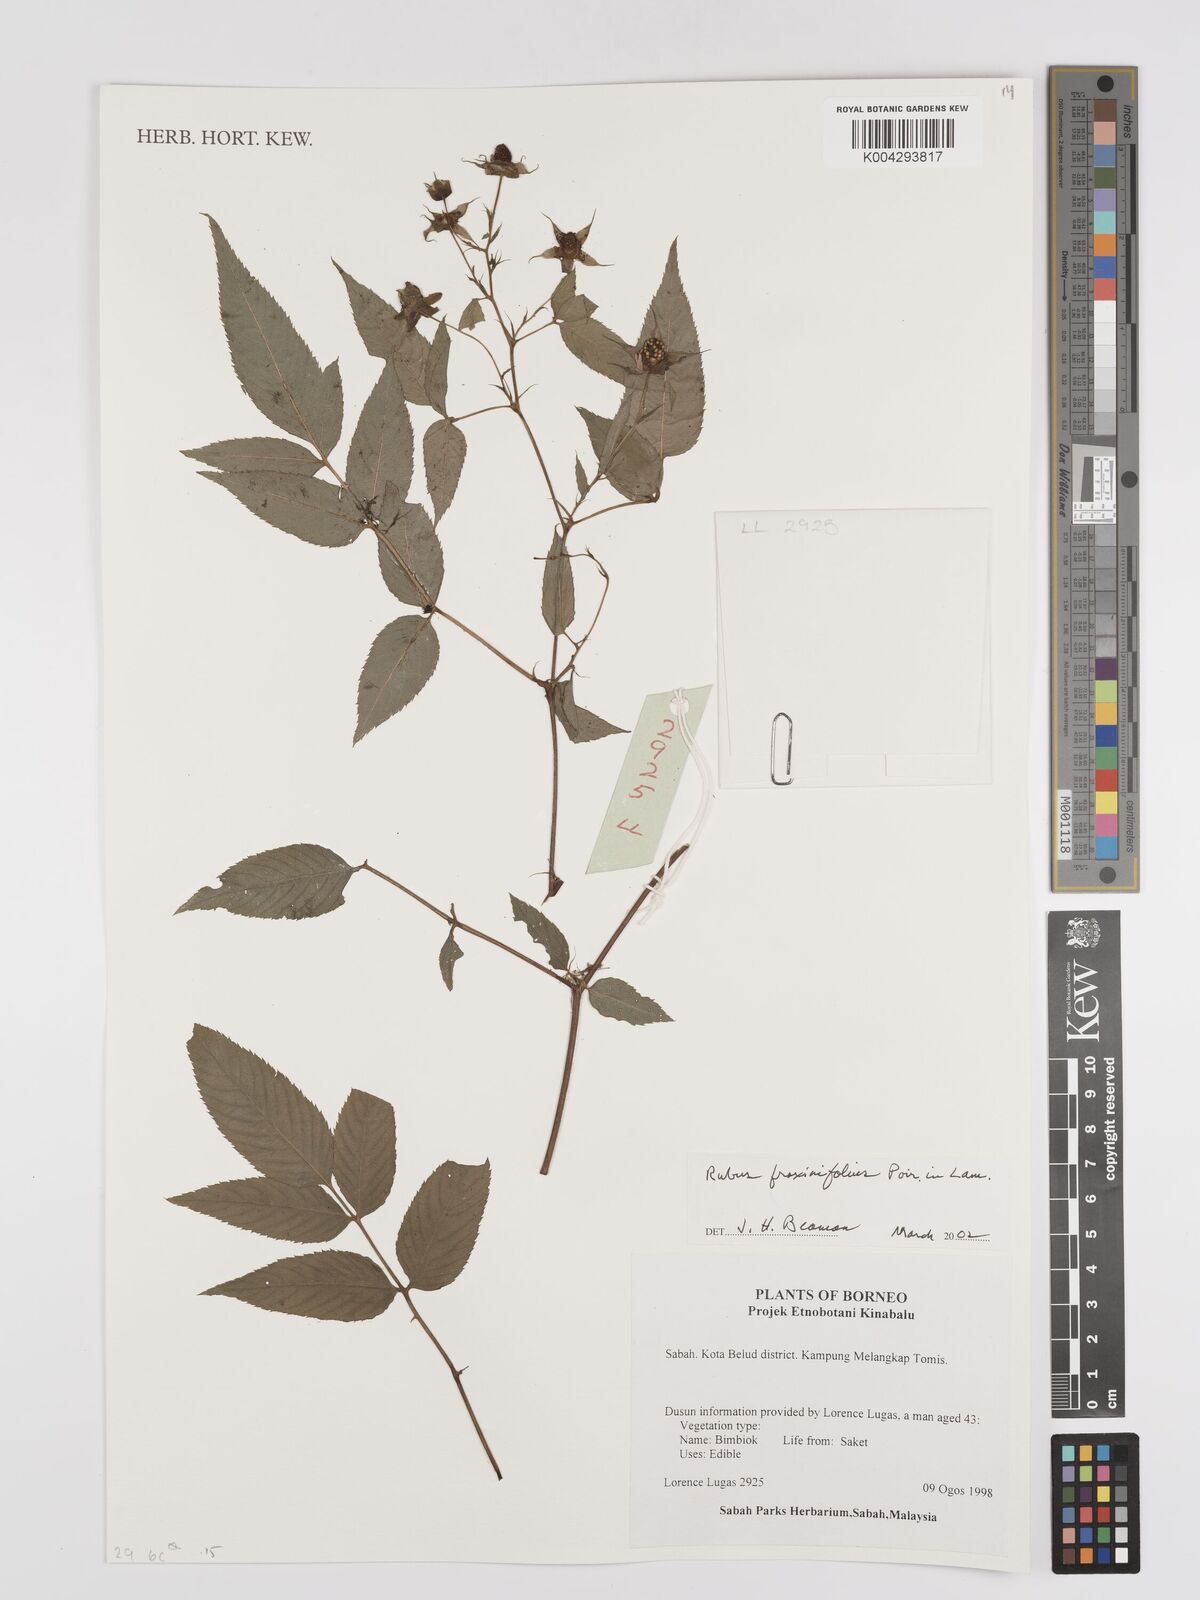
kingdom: Plantae
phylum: Tracheophyta
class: Magnoliopsida
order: Rosales
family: Rosaceae
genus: Rubus
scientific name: Rubus fraxinifolius
